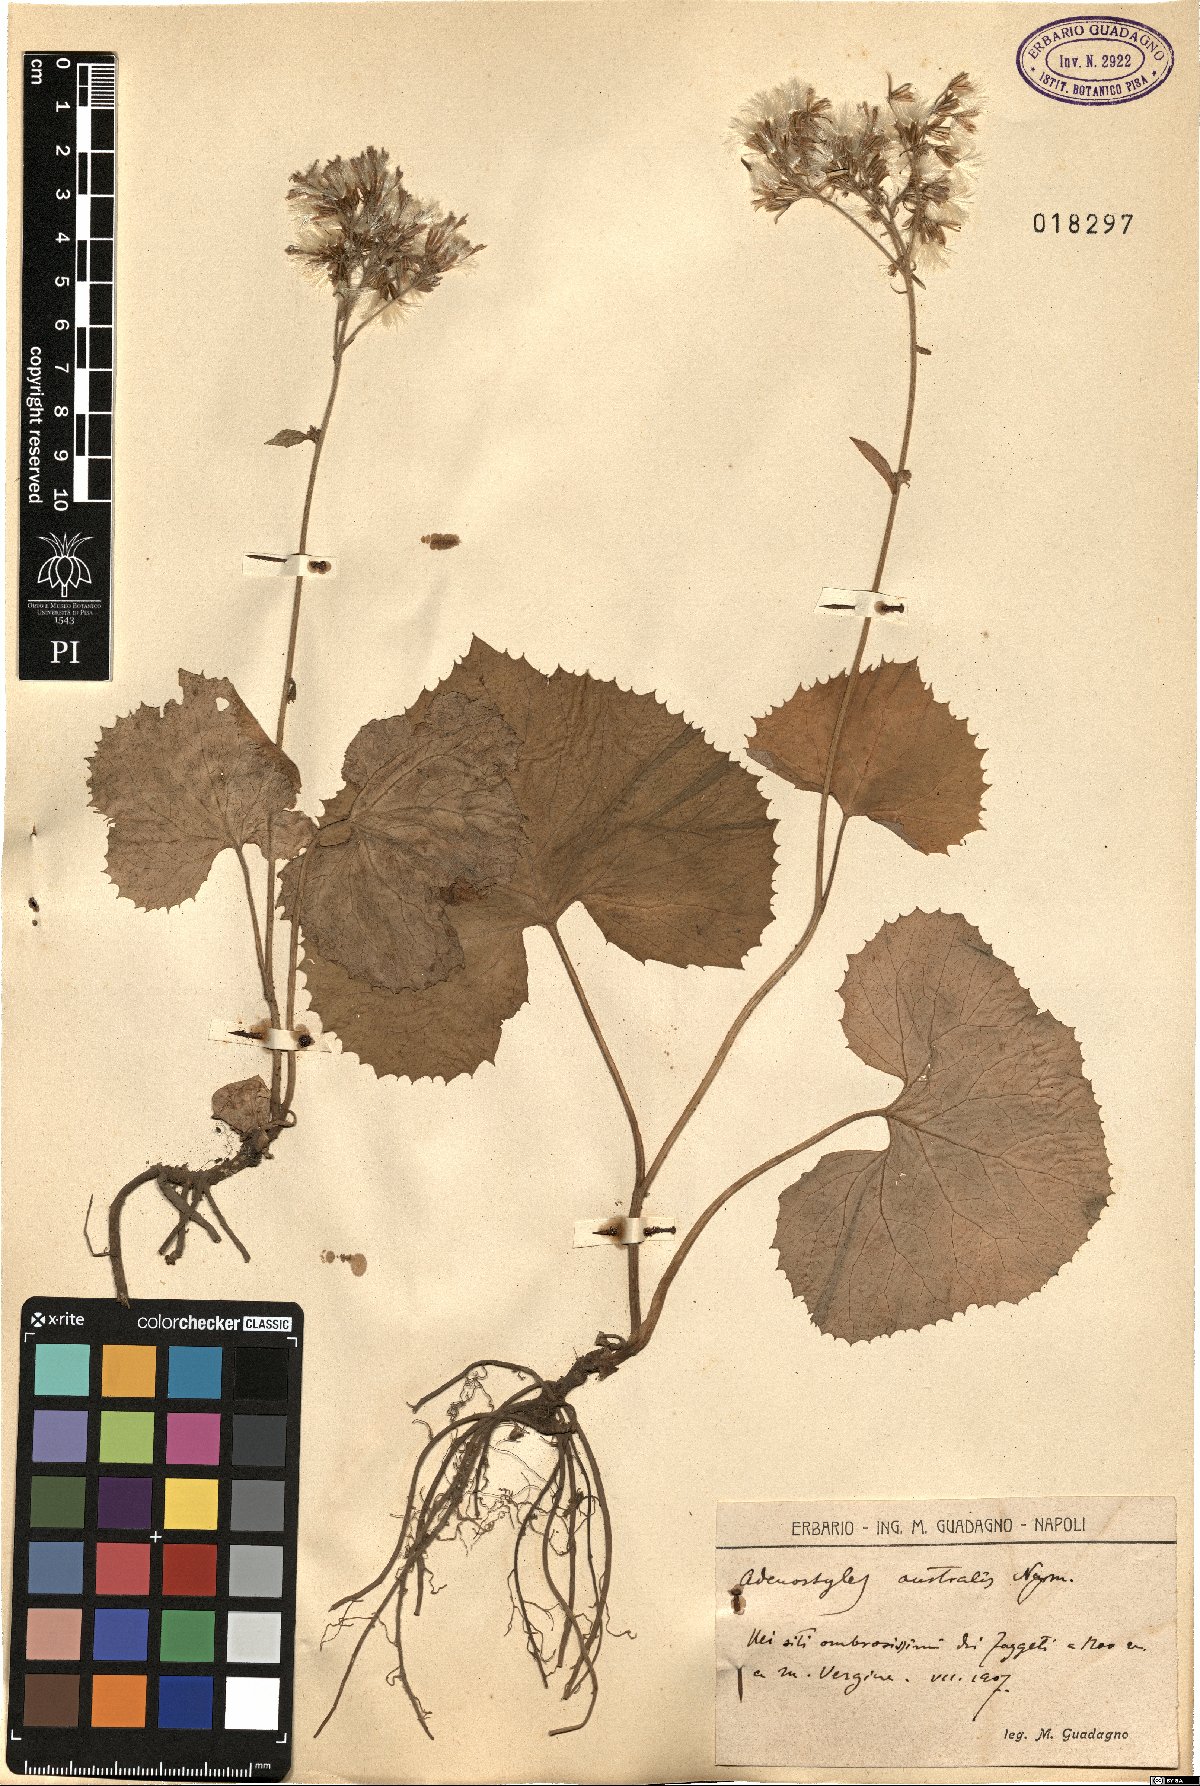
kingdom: Plantae
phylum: Tracheophyta
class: Magnoliopsida
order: Asterales
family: Asteraceae
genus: Adenostyles
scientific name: Adenostyles australis
